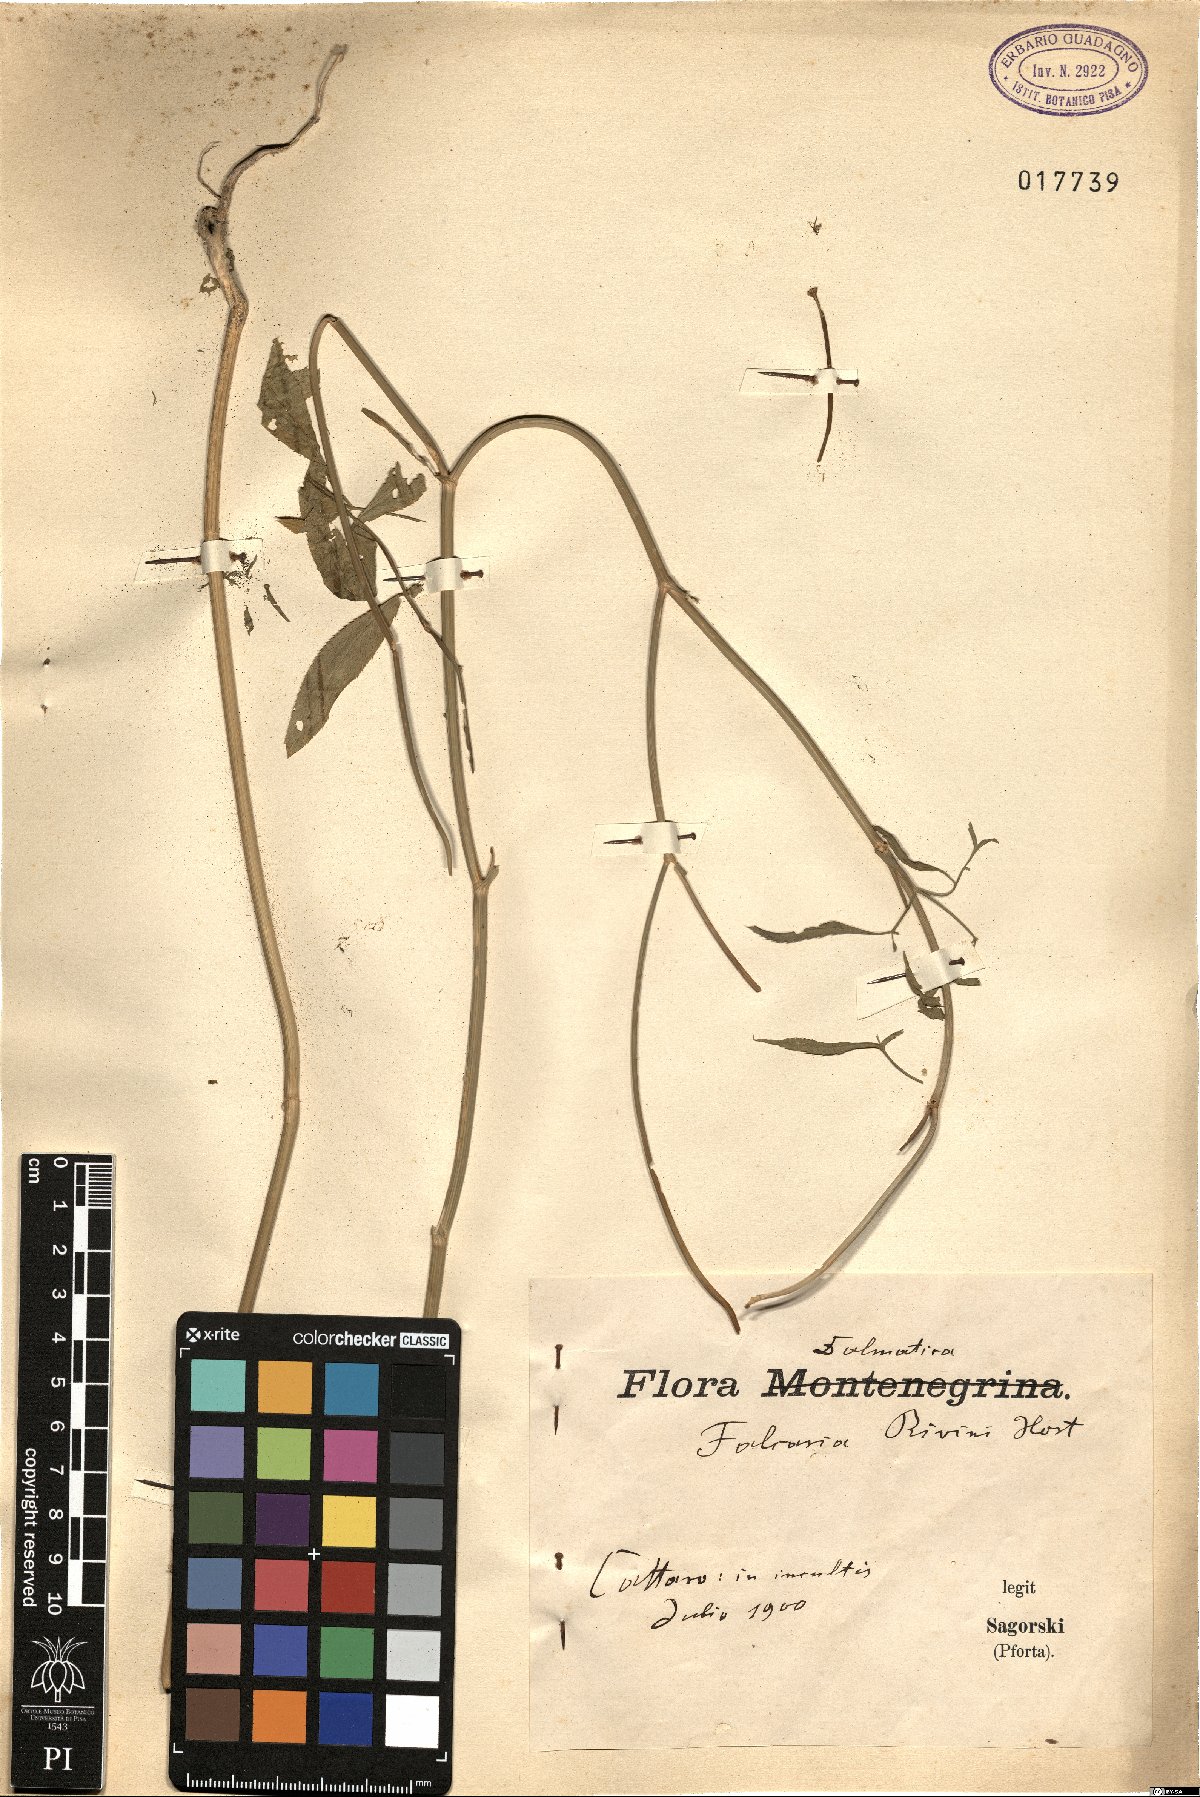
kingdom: Plantae
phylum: Tracheophyta
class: Magnoliopsida
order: Apiales
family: Apiaceae
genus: Falcaria
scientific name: Falcaria vulgaris
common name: Longleaf
